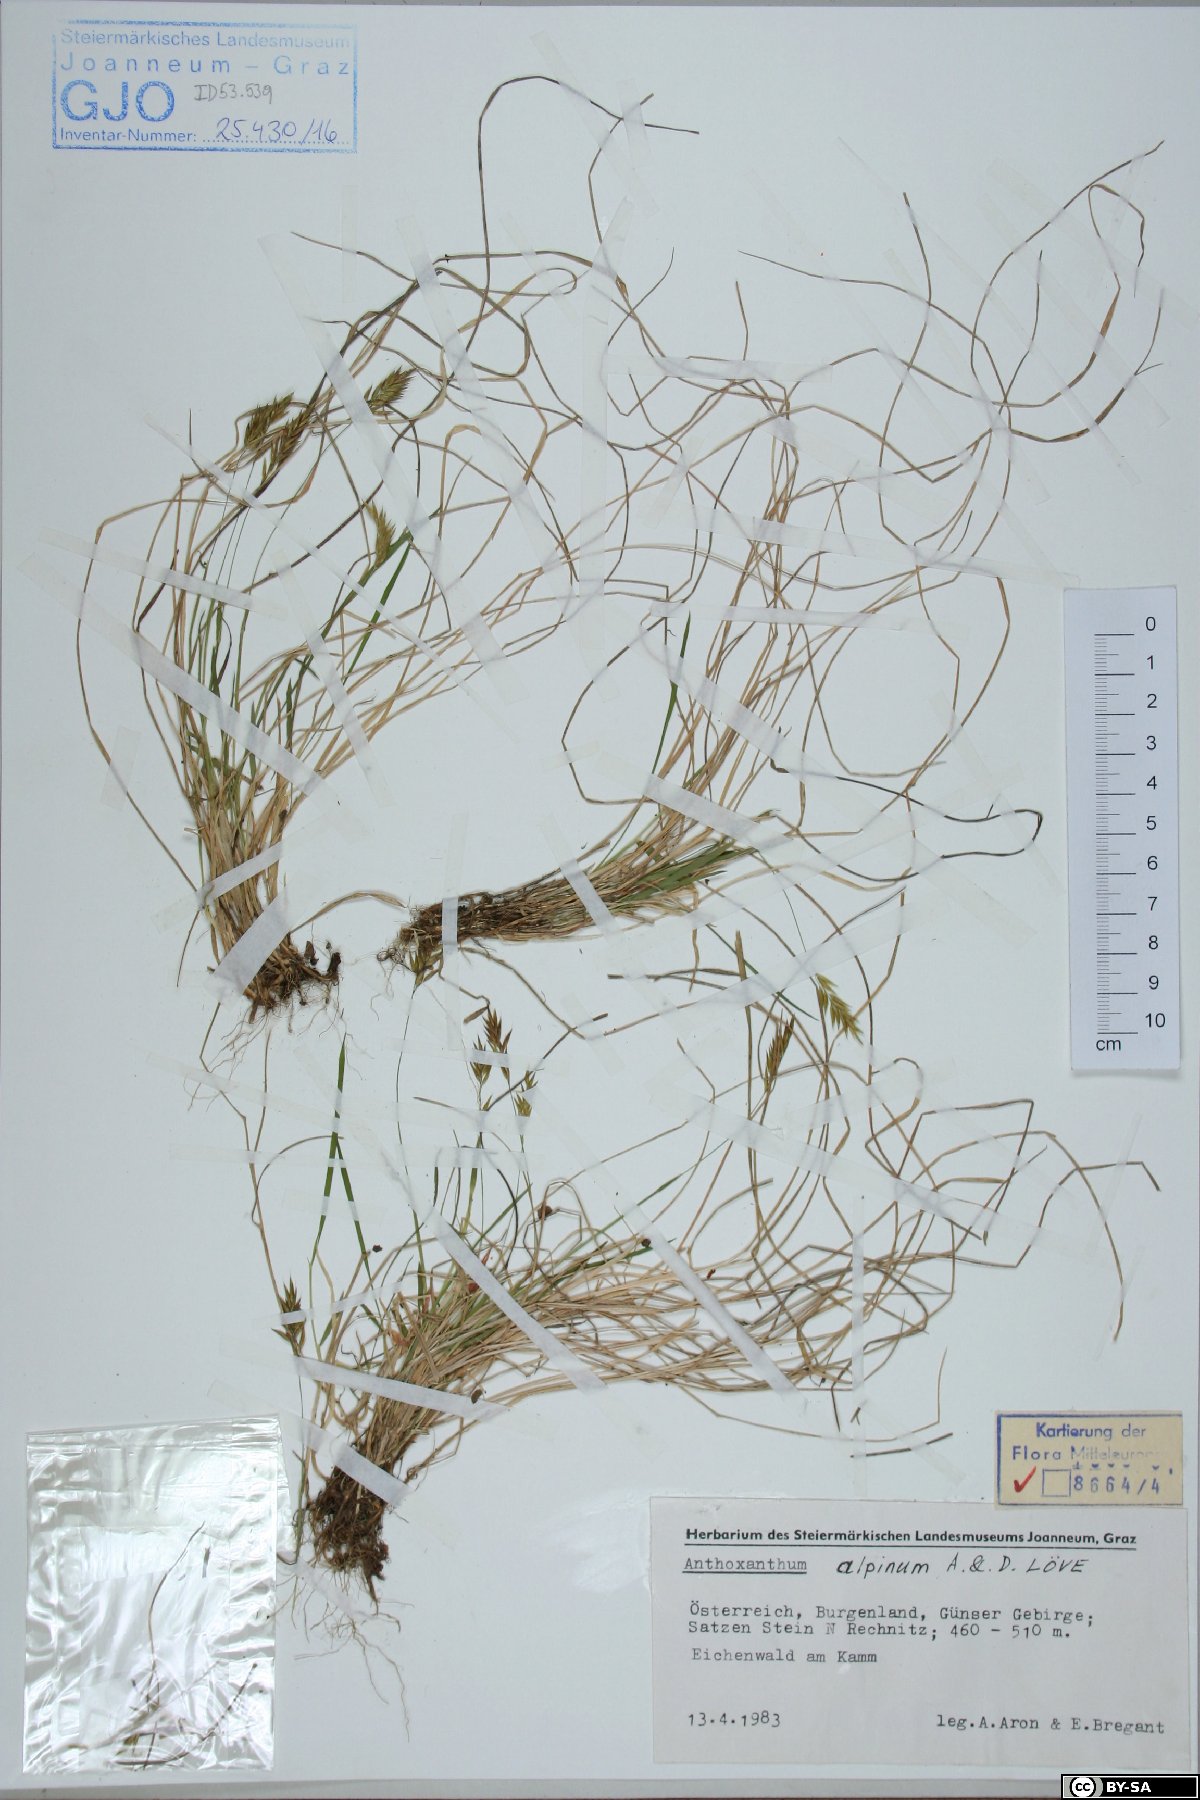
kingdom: Plantae
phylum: Tracheophyta
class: Liliopsida
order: Poales
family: Poaceae
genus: Anthoxanthum
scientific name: Anthoxanthum nipponicum
